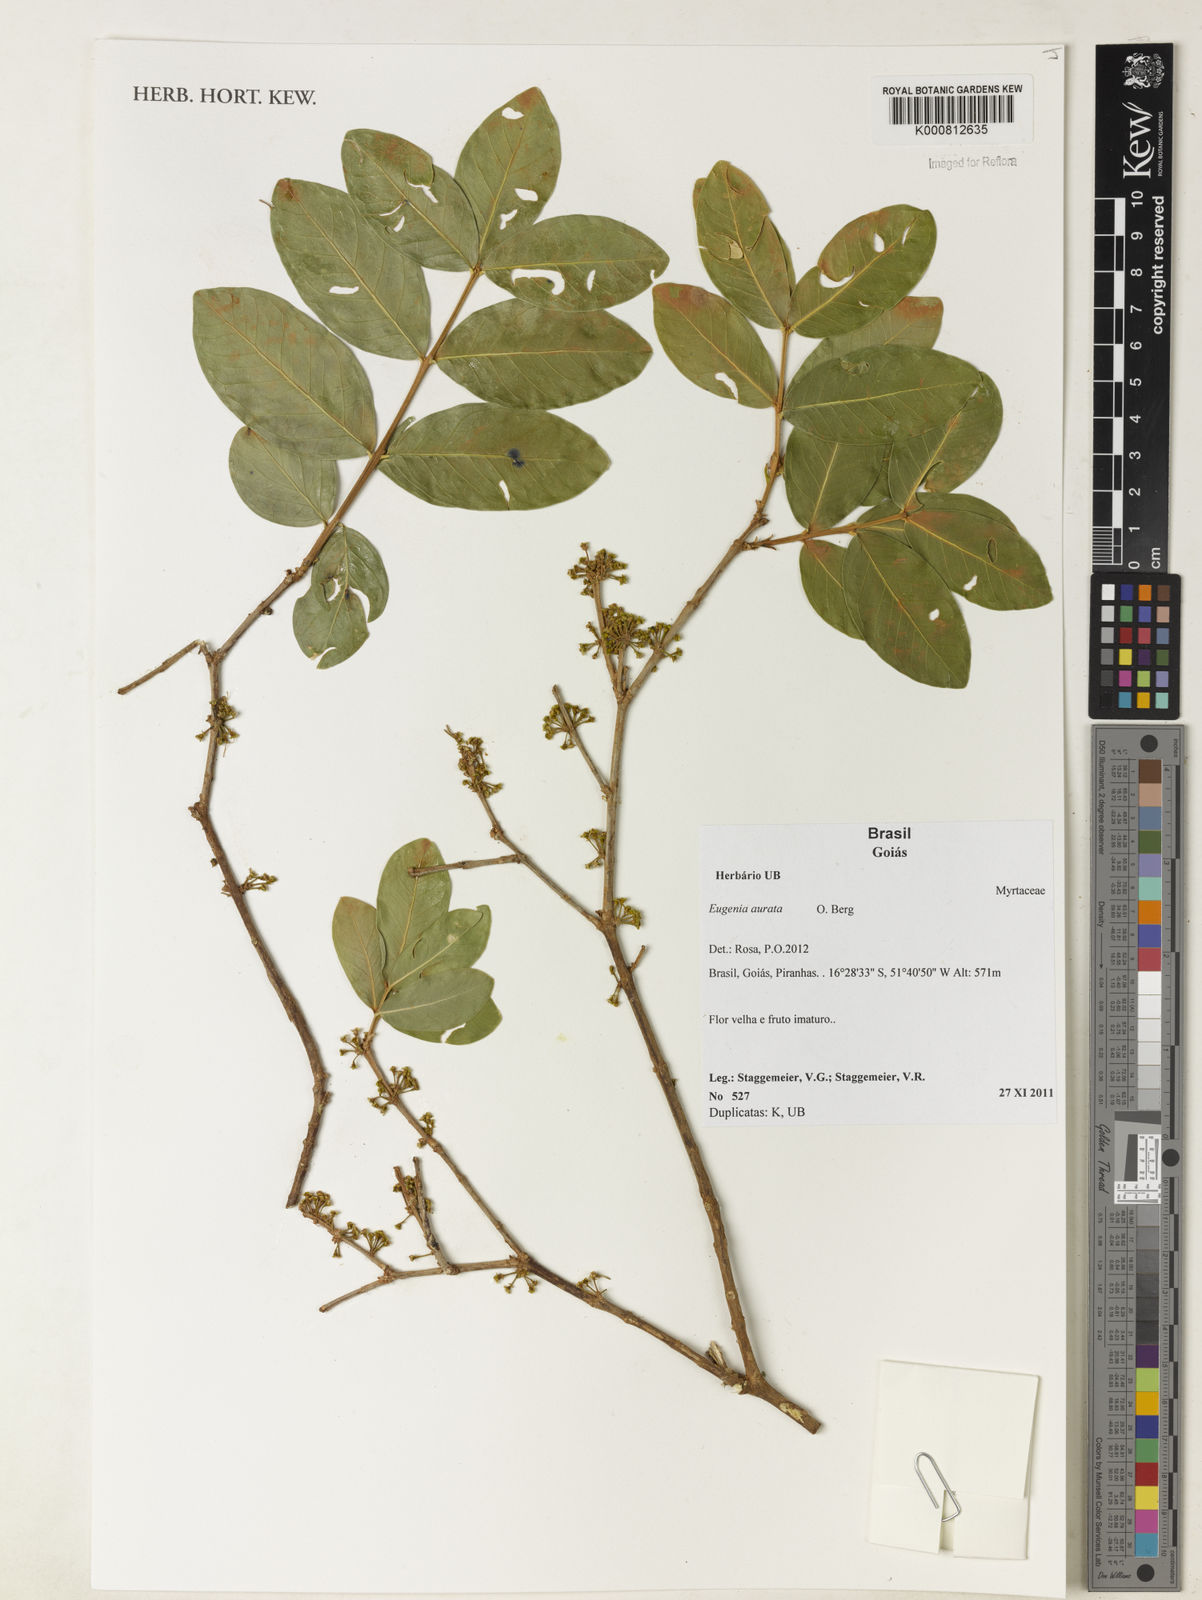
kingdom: Plantae
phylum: Tracheophyta
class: Magnoliopsida
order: Myrtales
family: Myrtaceae
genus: Eugenia
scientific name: Eugenia aurata
